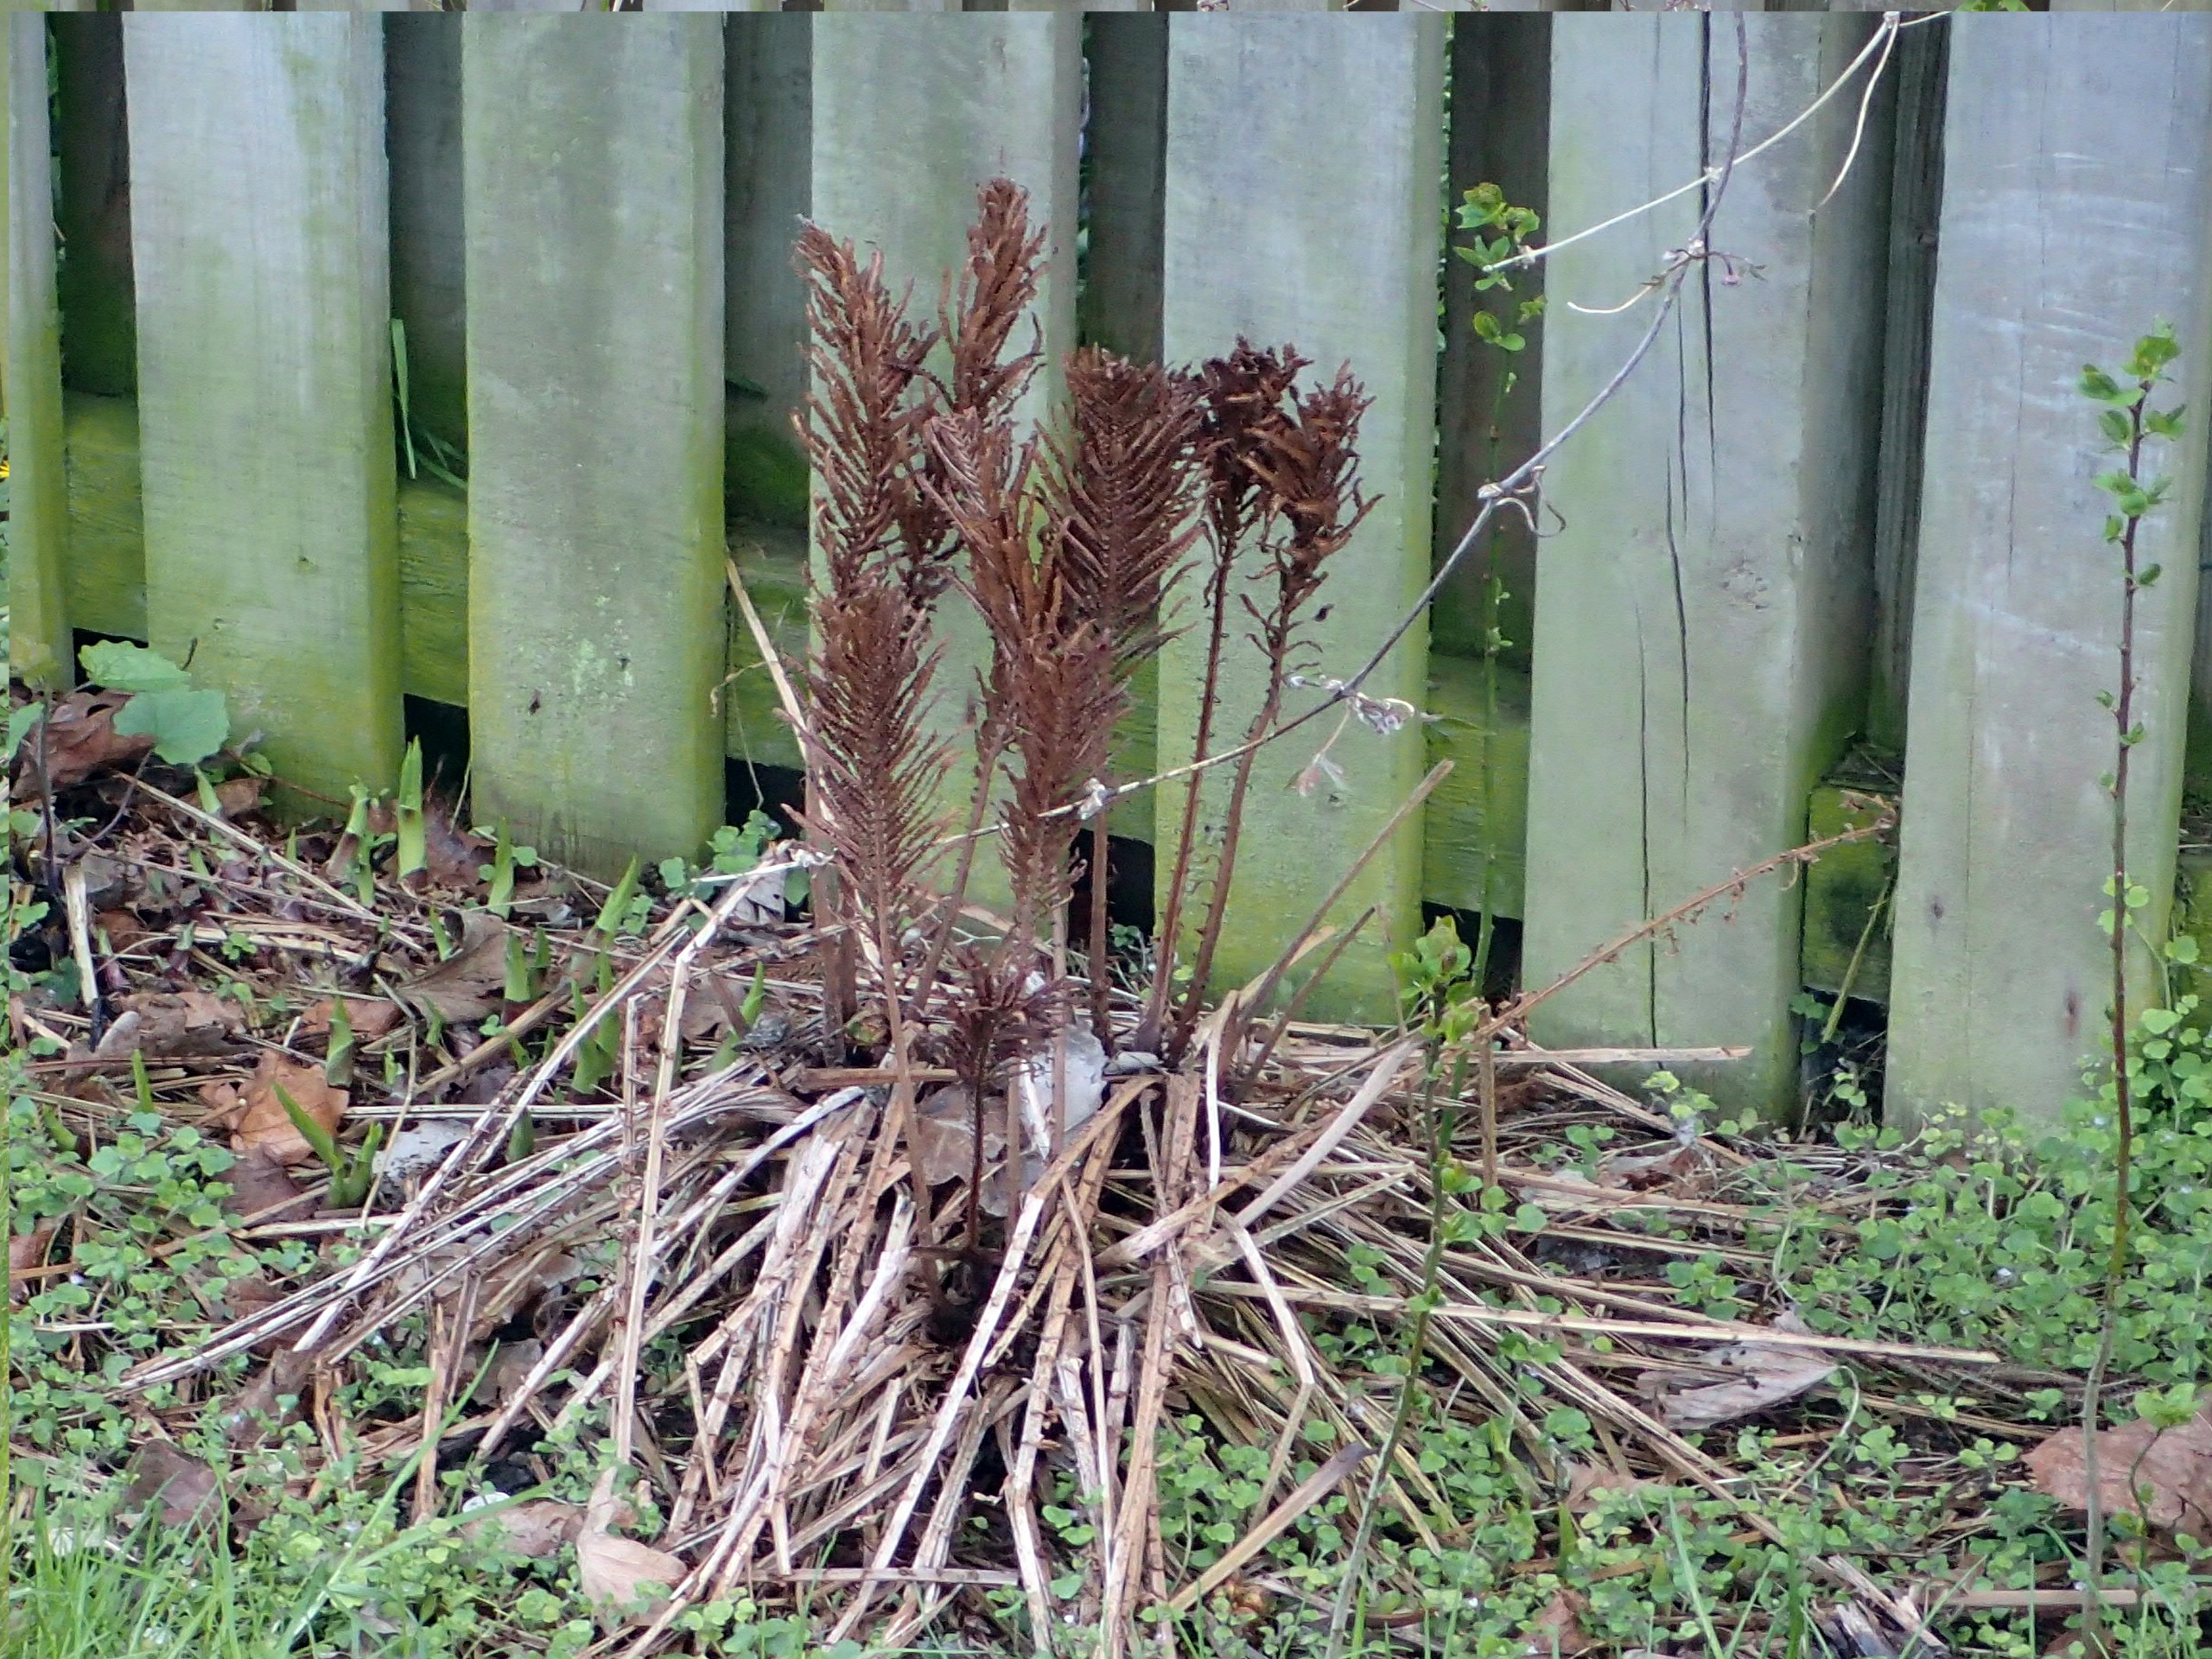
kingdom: Plantae
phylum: Tracheophyta
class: Polypodiopsida
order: Polypodiales
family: Onocleaceae
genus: Matteuccia
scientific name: Matteuccia struthiopteris
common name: Strudsvinge
